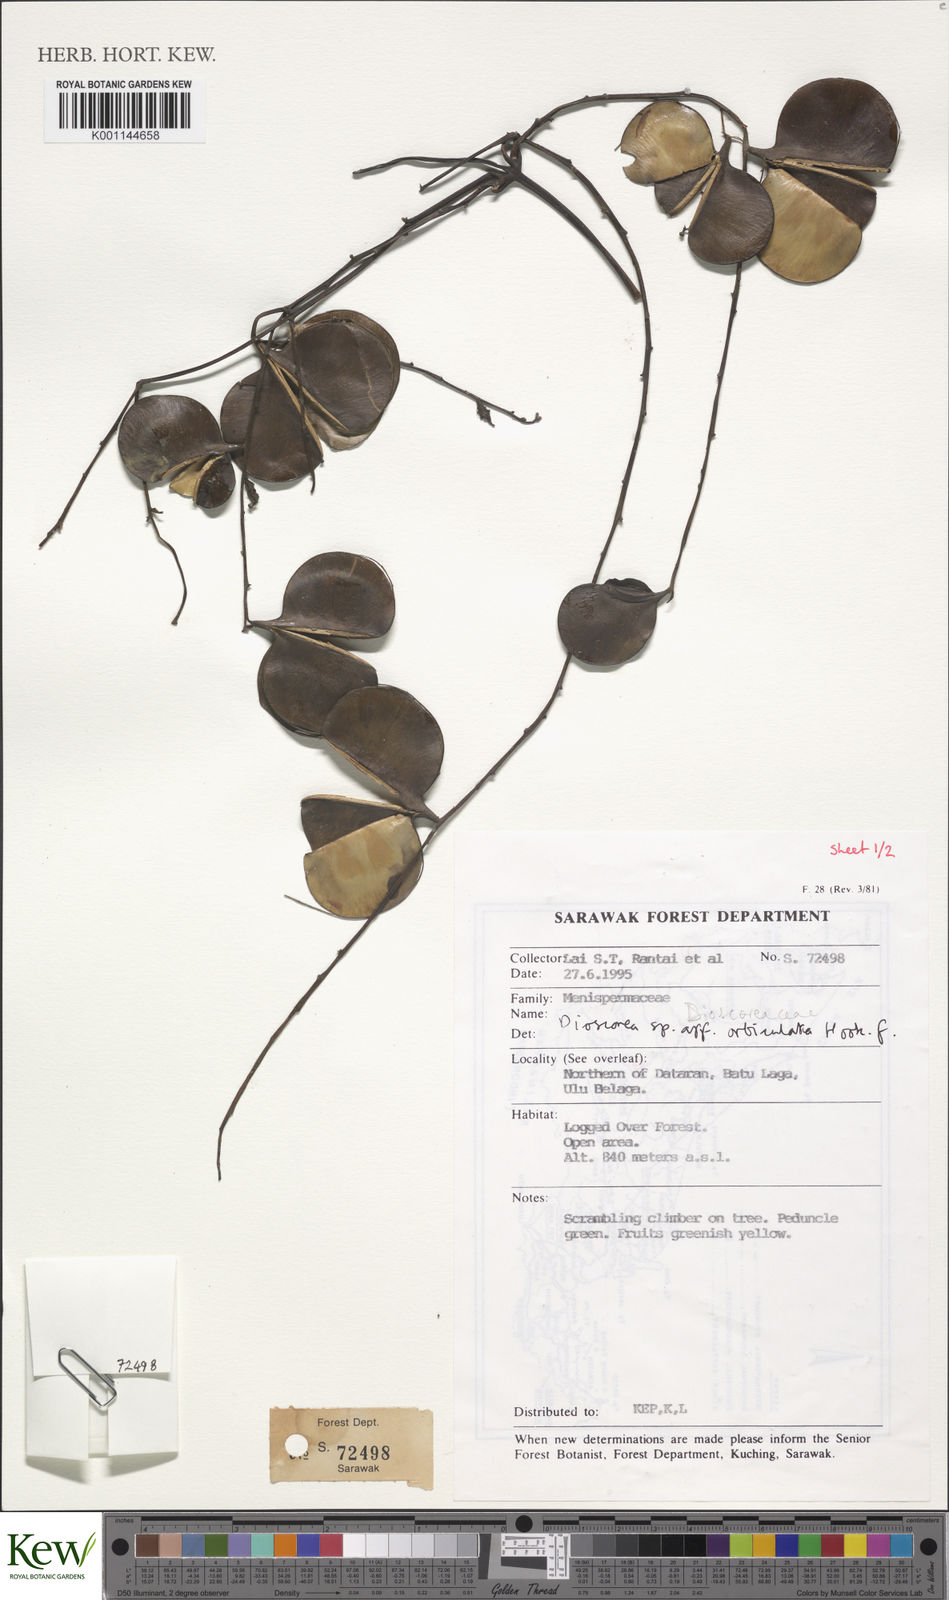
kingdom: Plantae
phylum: Tracheophyta
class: Liliopsida
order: Dioscoreales
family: Dioscoreaceae
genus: Dioscorea
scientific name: Dioscorea orbiculata
